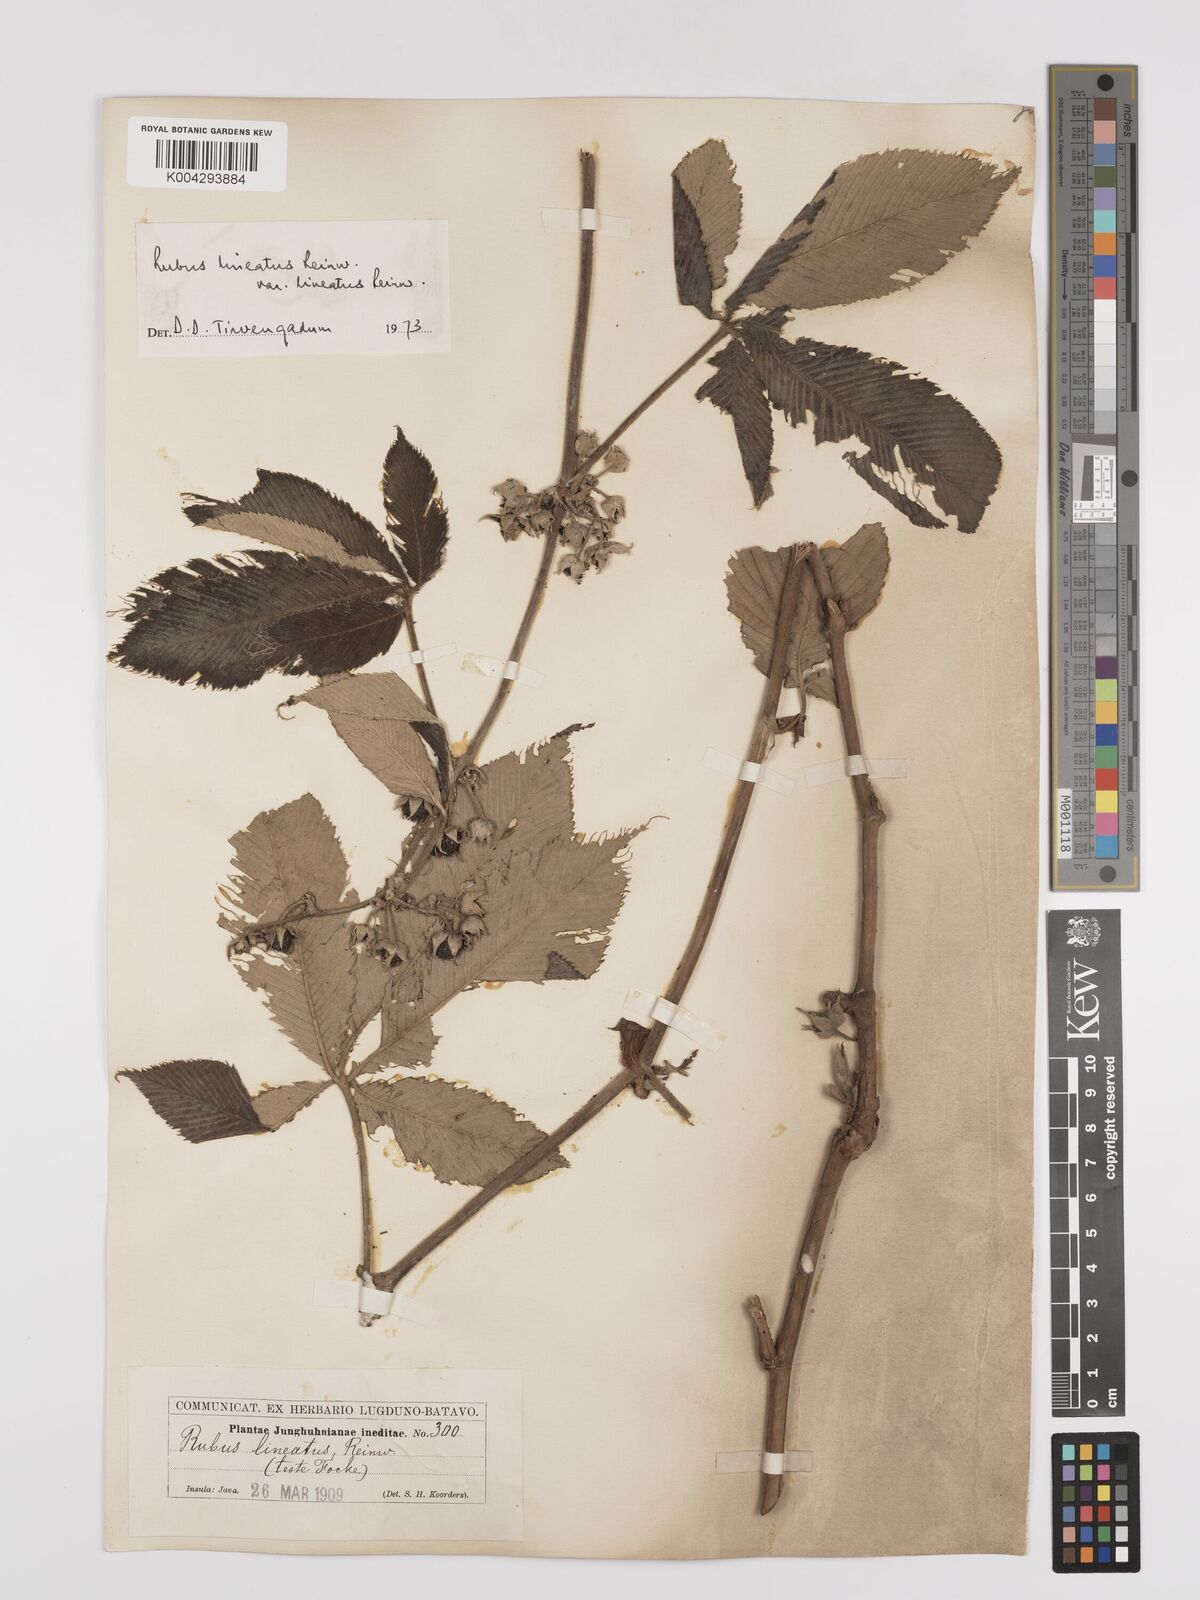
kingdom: Plantae
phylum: Tracheophyta
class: Magnoliopsida
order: Rosales
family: Rosaceae
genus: Rubus
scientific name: Rubus lineatus
